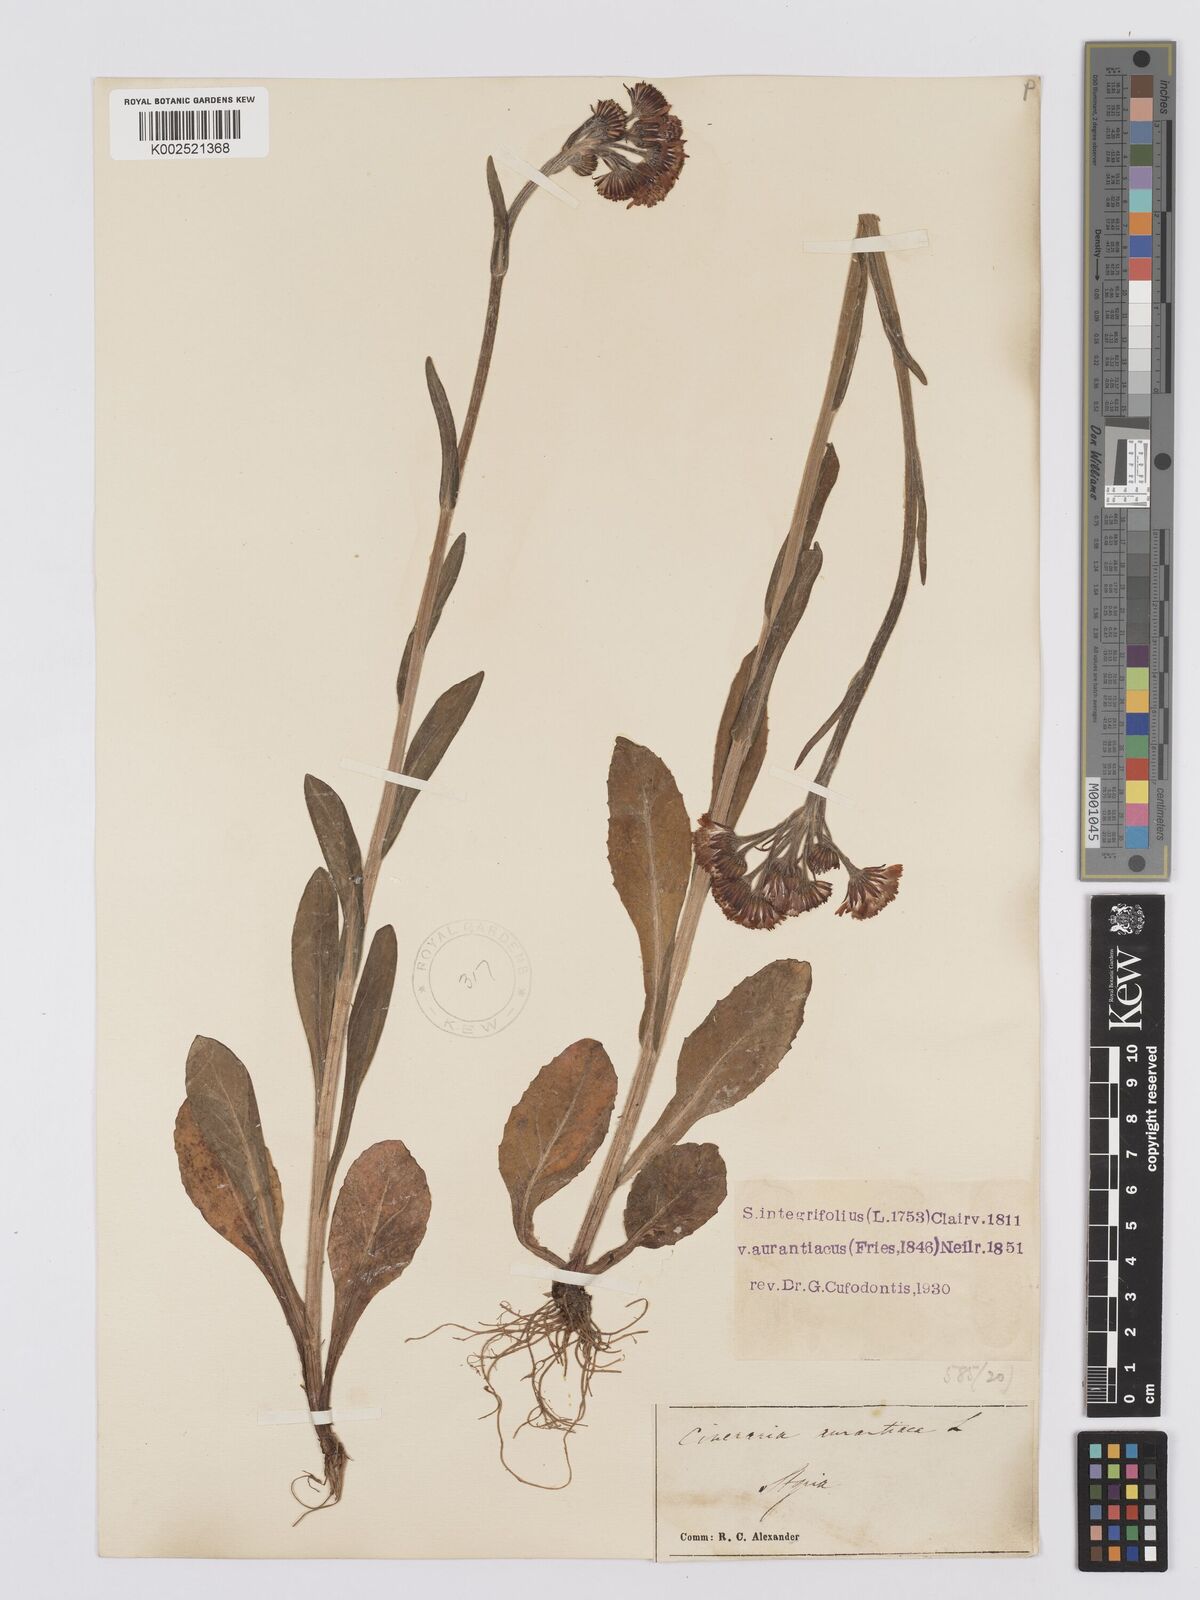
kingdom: Plantae
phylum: Tracheophyta
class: Magnoliopsida
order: Asterales
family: Asteraceae
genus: Tephroseris
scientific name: Tephroseris aurantiaca
